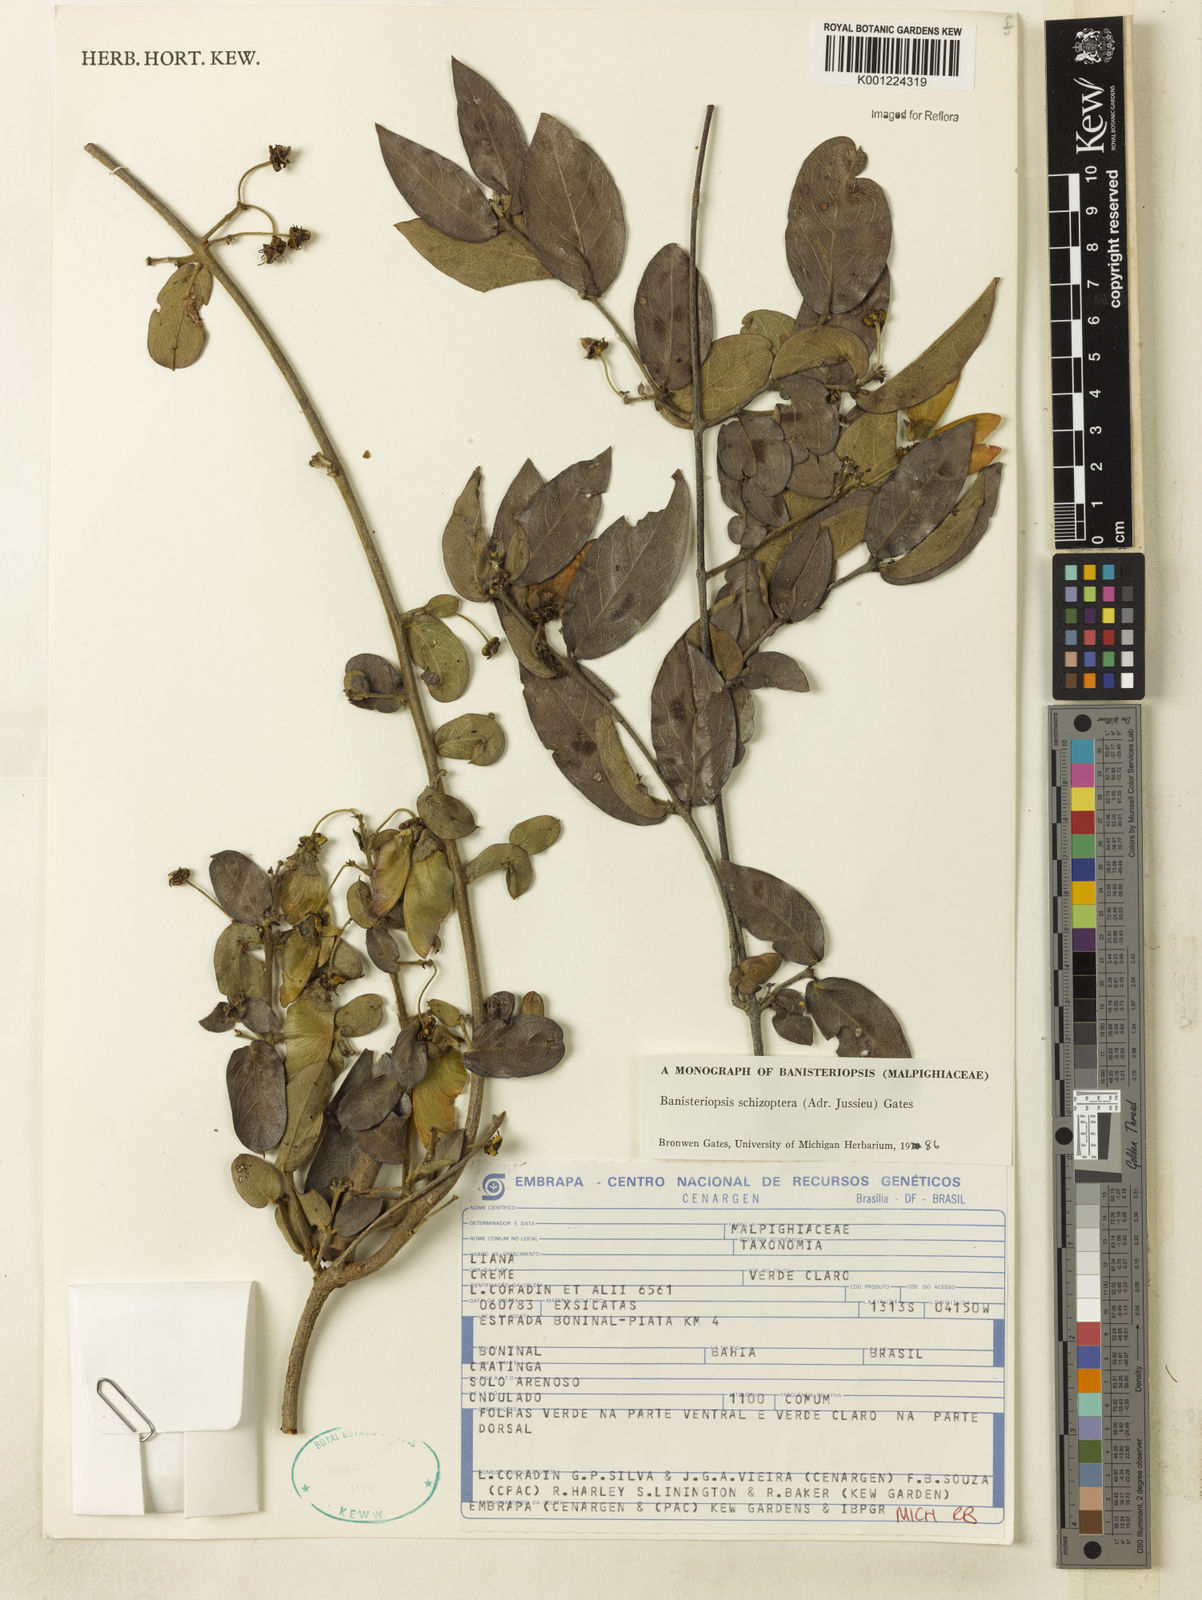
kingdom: Plantae
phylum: Tracheophyta
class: Magnoliopsida
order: Malpighiales
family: Malpighiaceae
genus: Banisteriopsis
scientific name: Banisteriopsis schizoptera
